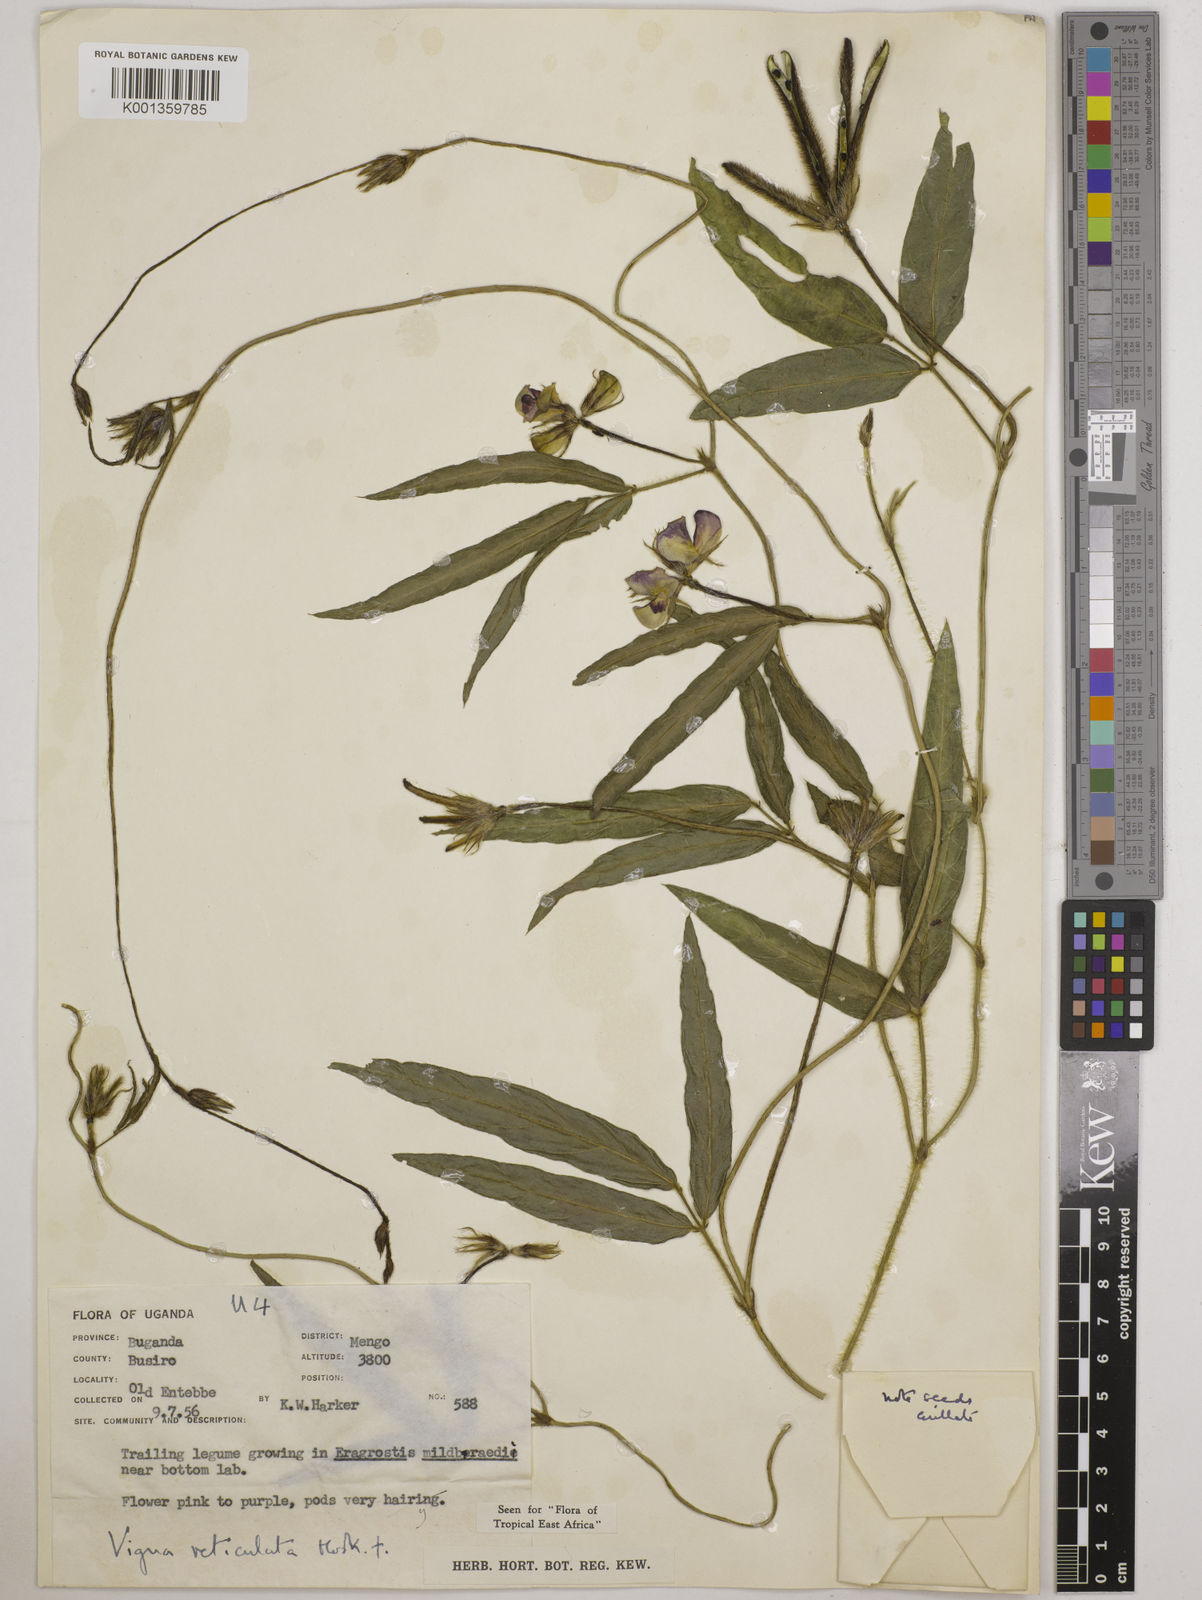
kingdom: Plantae
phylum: Tracheophyta
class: Magnoliopsida
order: Fabales
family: Fabaceae
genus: Vigna
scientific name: Vigna reticulata
